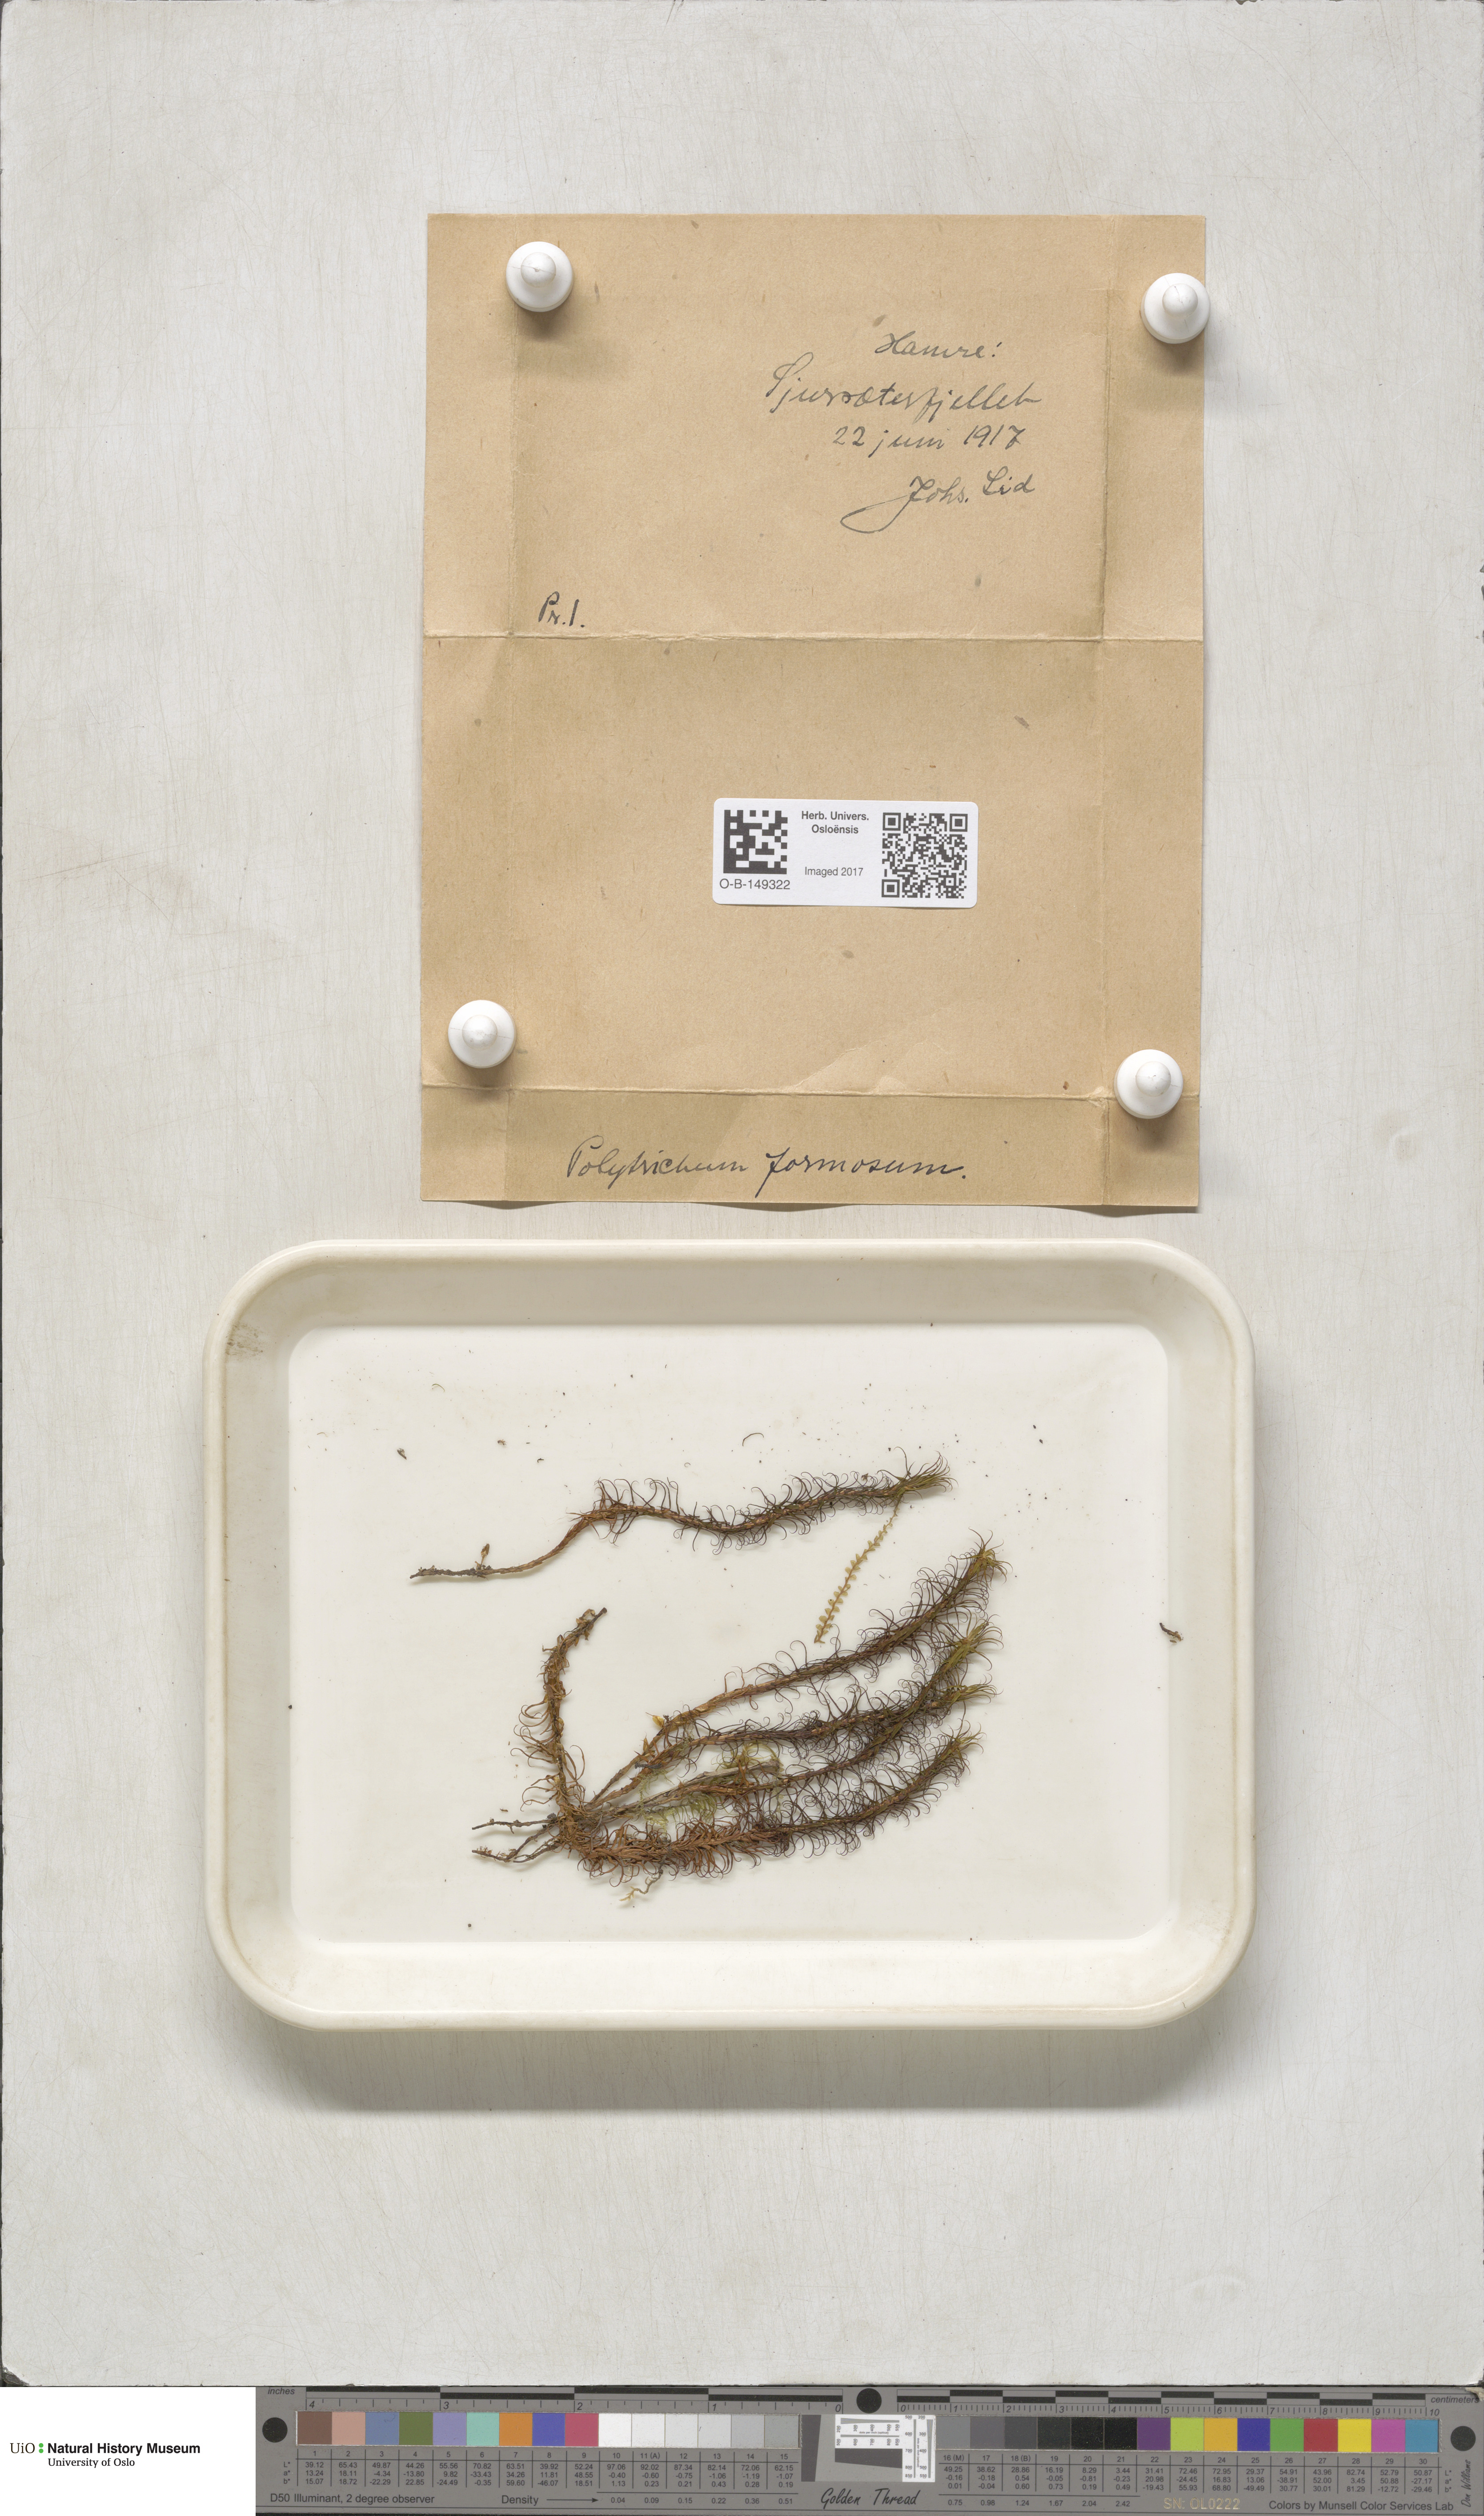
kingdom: Plantae
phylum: Bryophyta
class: Polytrichopsida
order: Polytrichales
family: Polytrichaceae
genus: Polytrichum
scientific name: Polytrichum formosum
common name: Bank haircap moss
